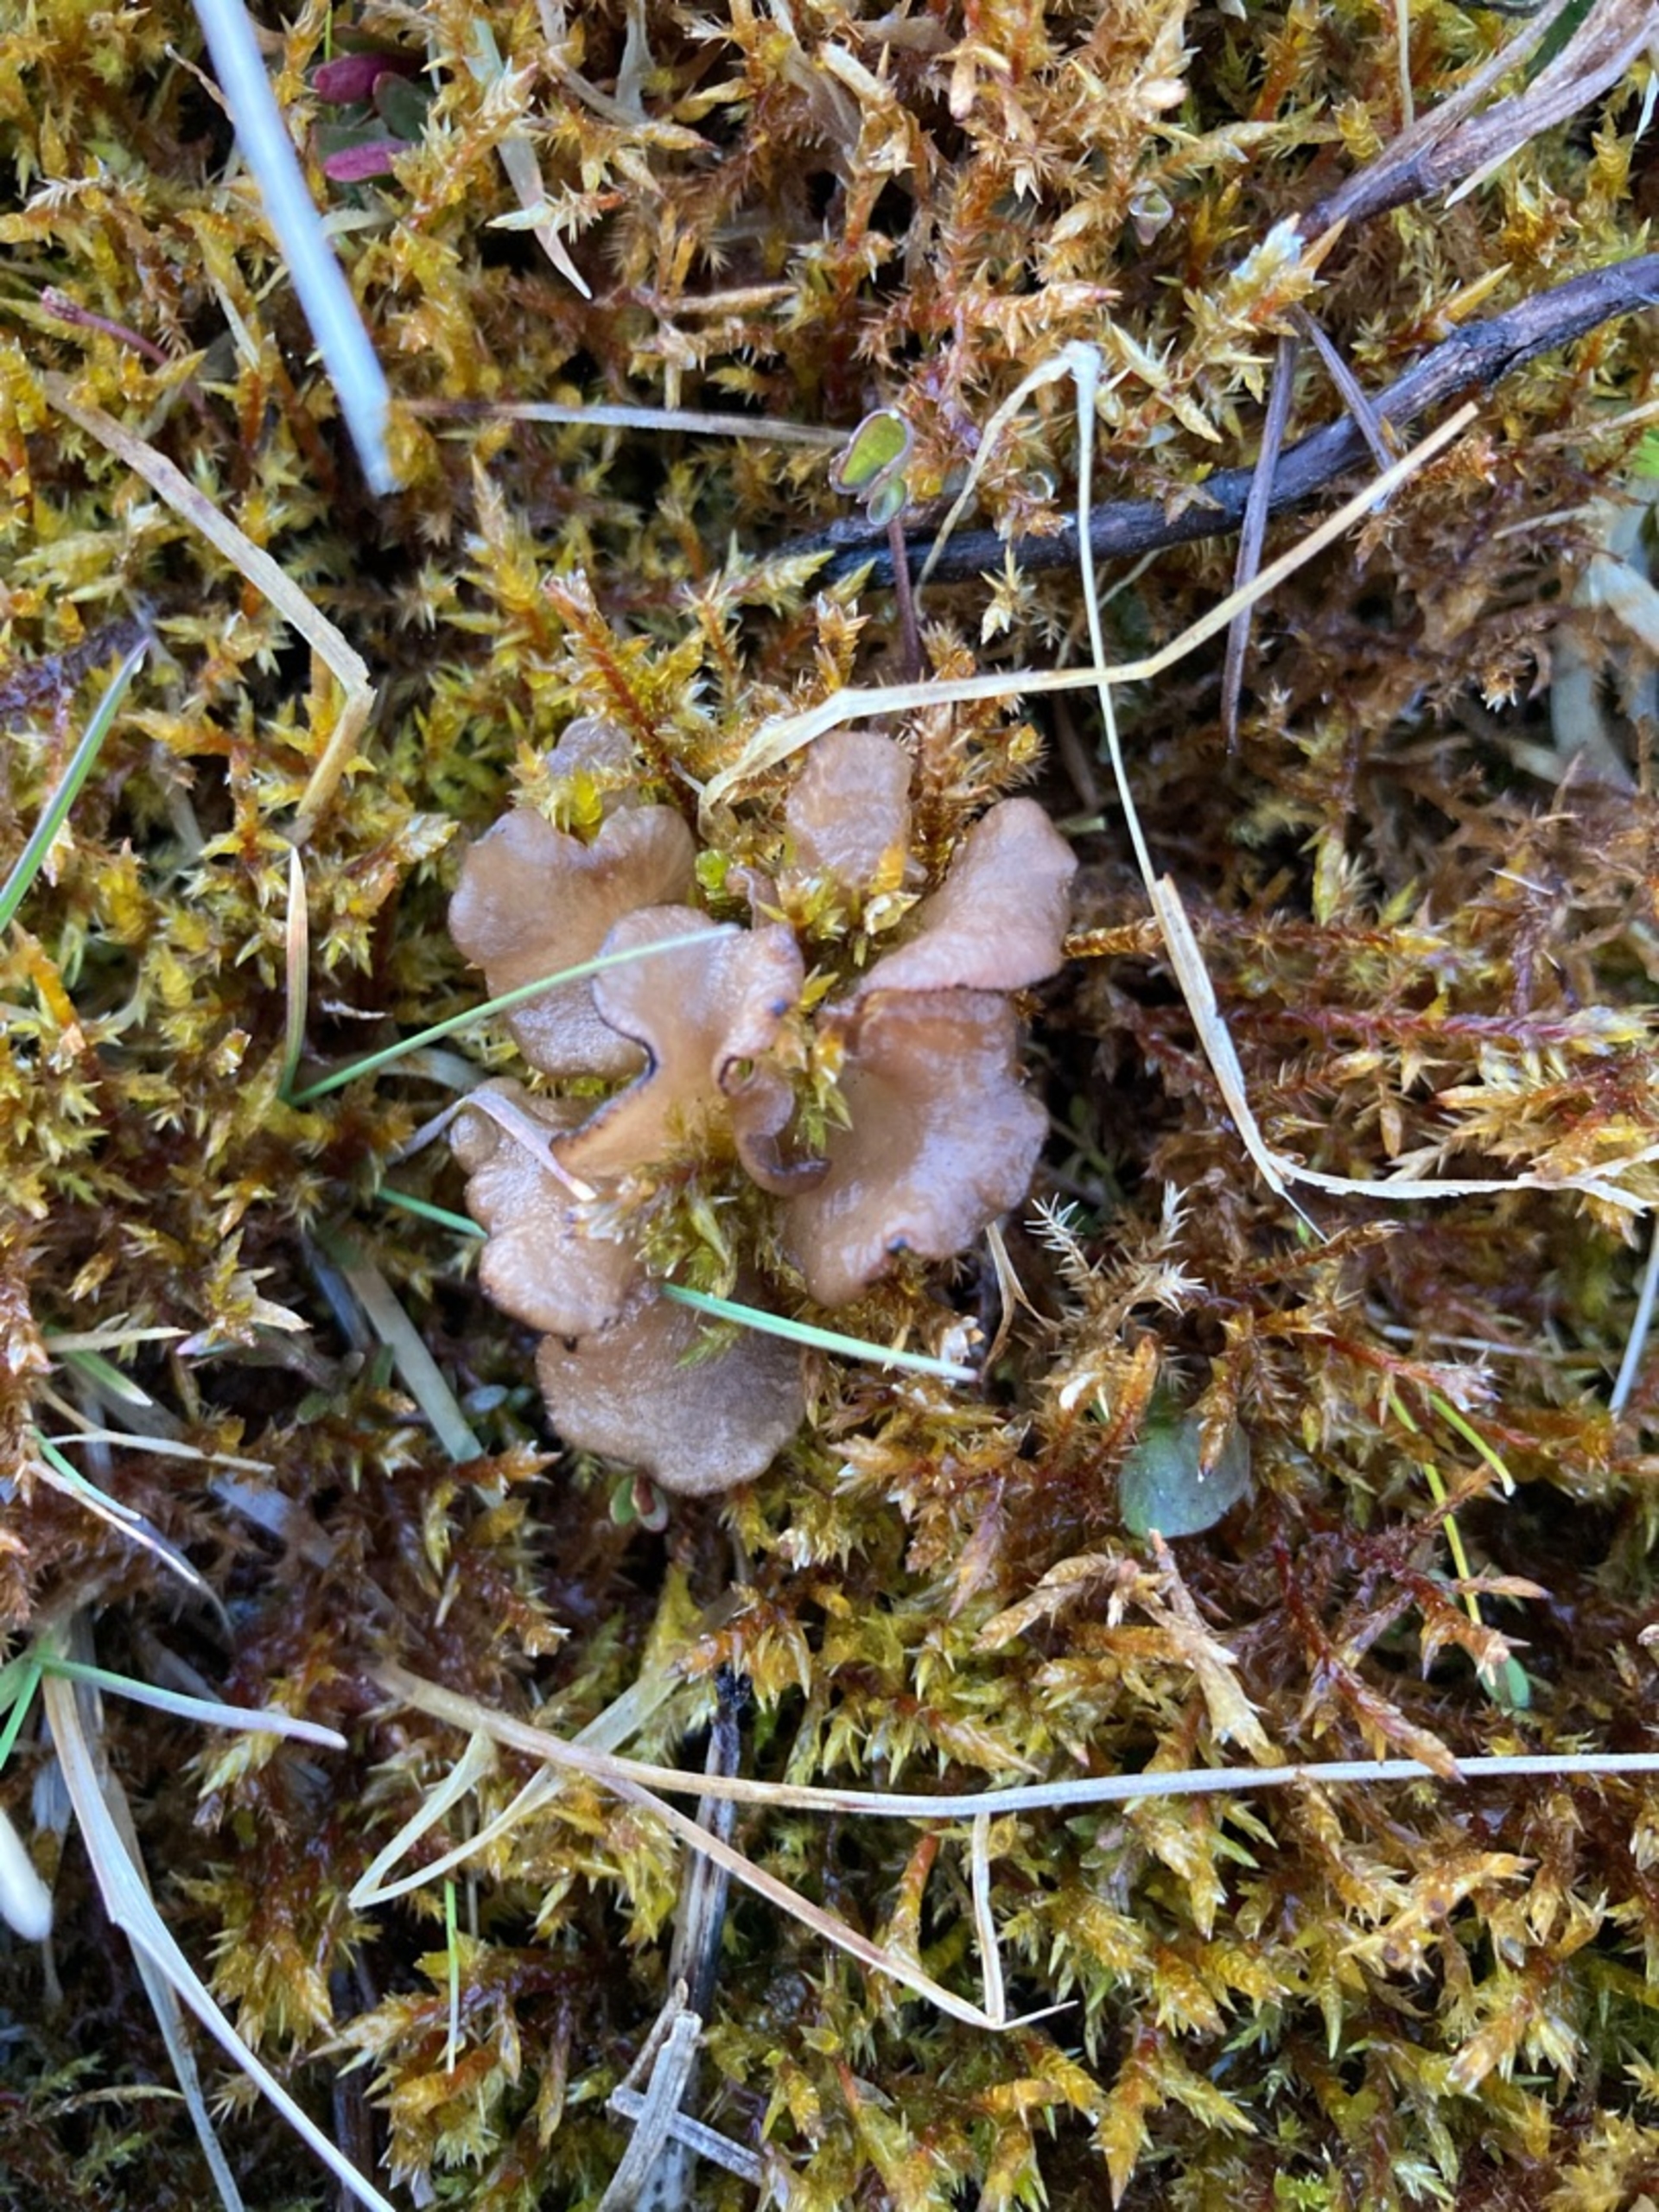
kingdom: Fungi
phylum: Basidiomycota
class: Agaricomycetes
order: Agaricales
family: Hygrophoraceae
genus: Arrhenia
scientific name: Arrhenia lobata
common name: Siddende fontænehat
